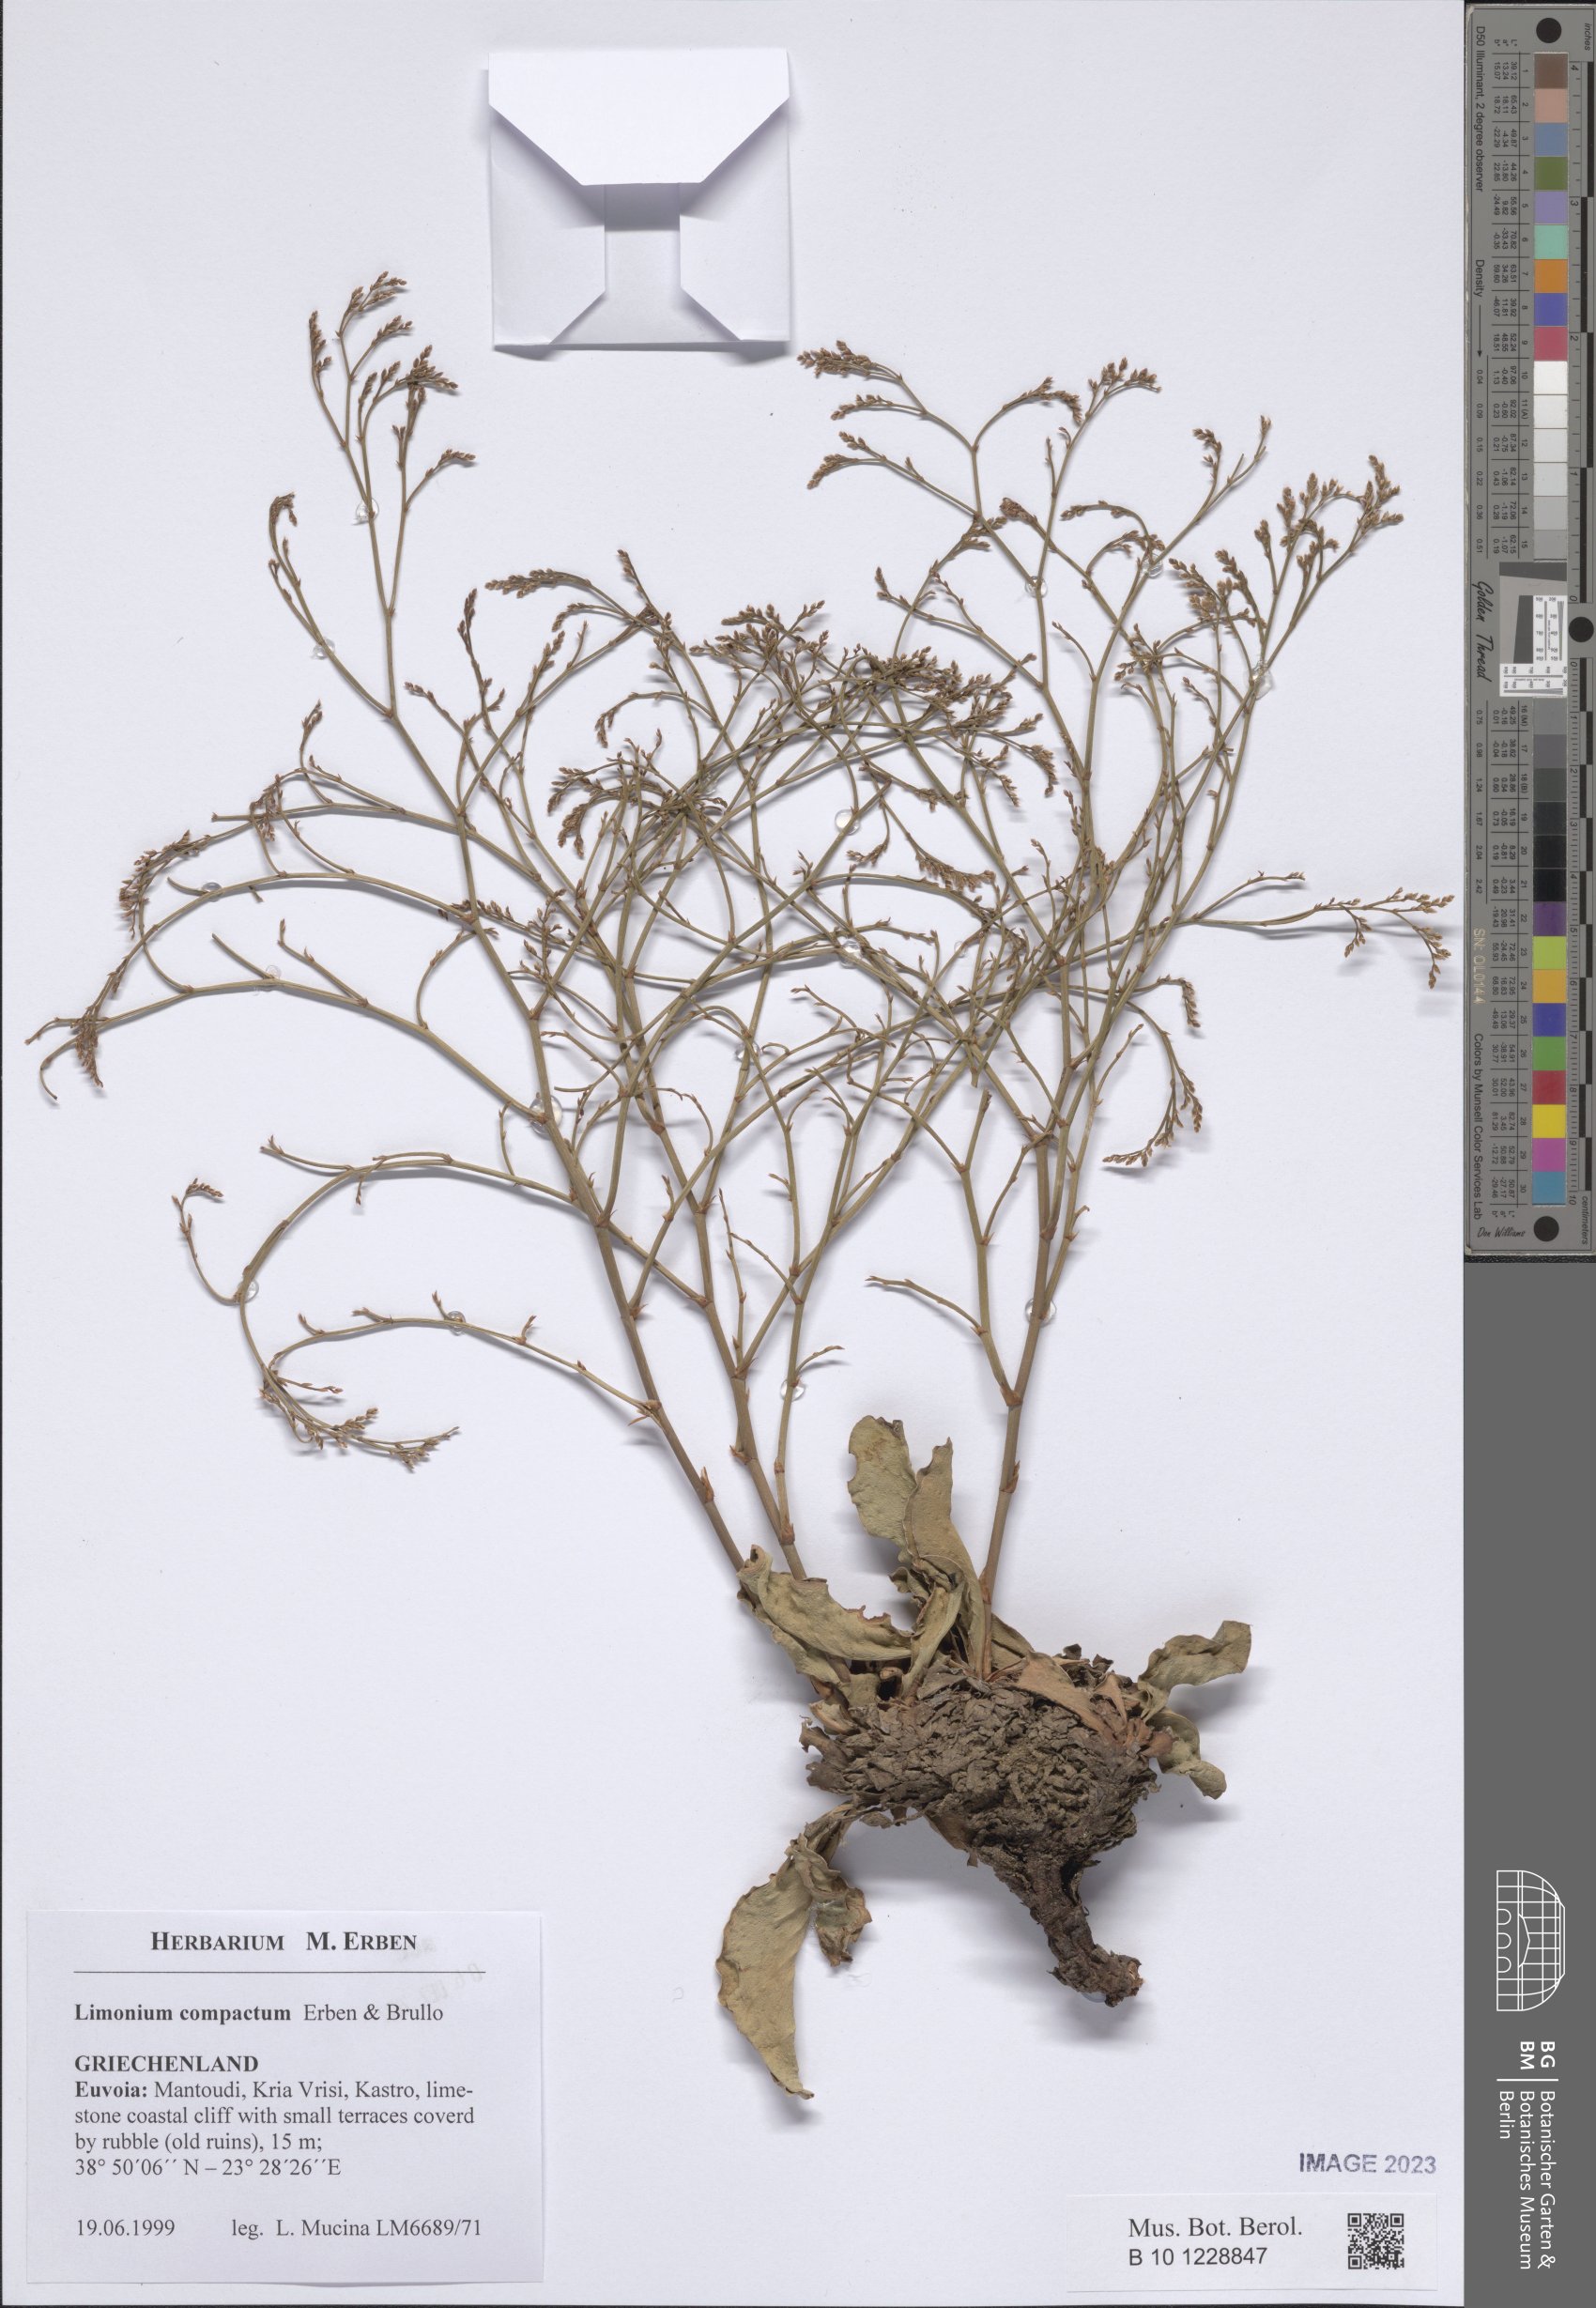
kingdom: Plantae
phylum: Tracheophyta
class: Magnoliopsida
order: Caryophyllales
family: Plumbaginaceae
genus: Limonium
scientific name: Limonium compactum
